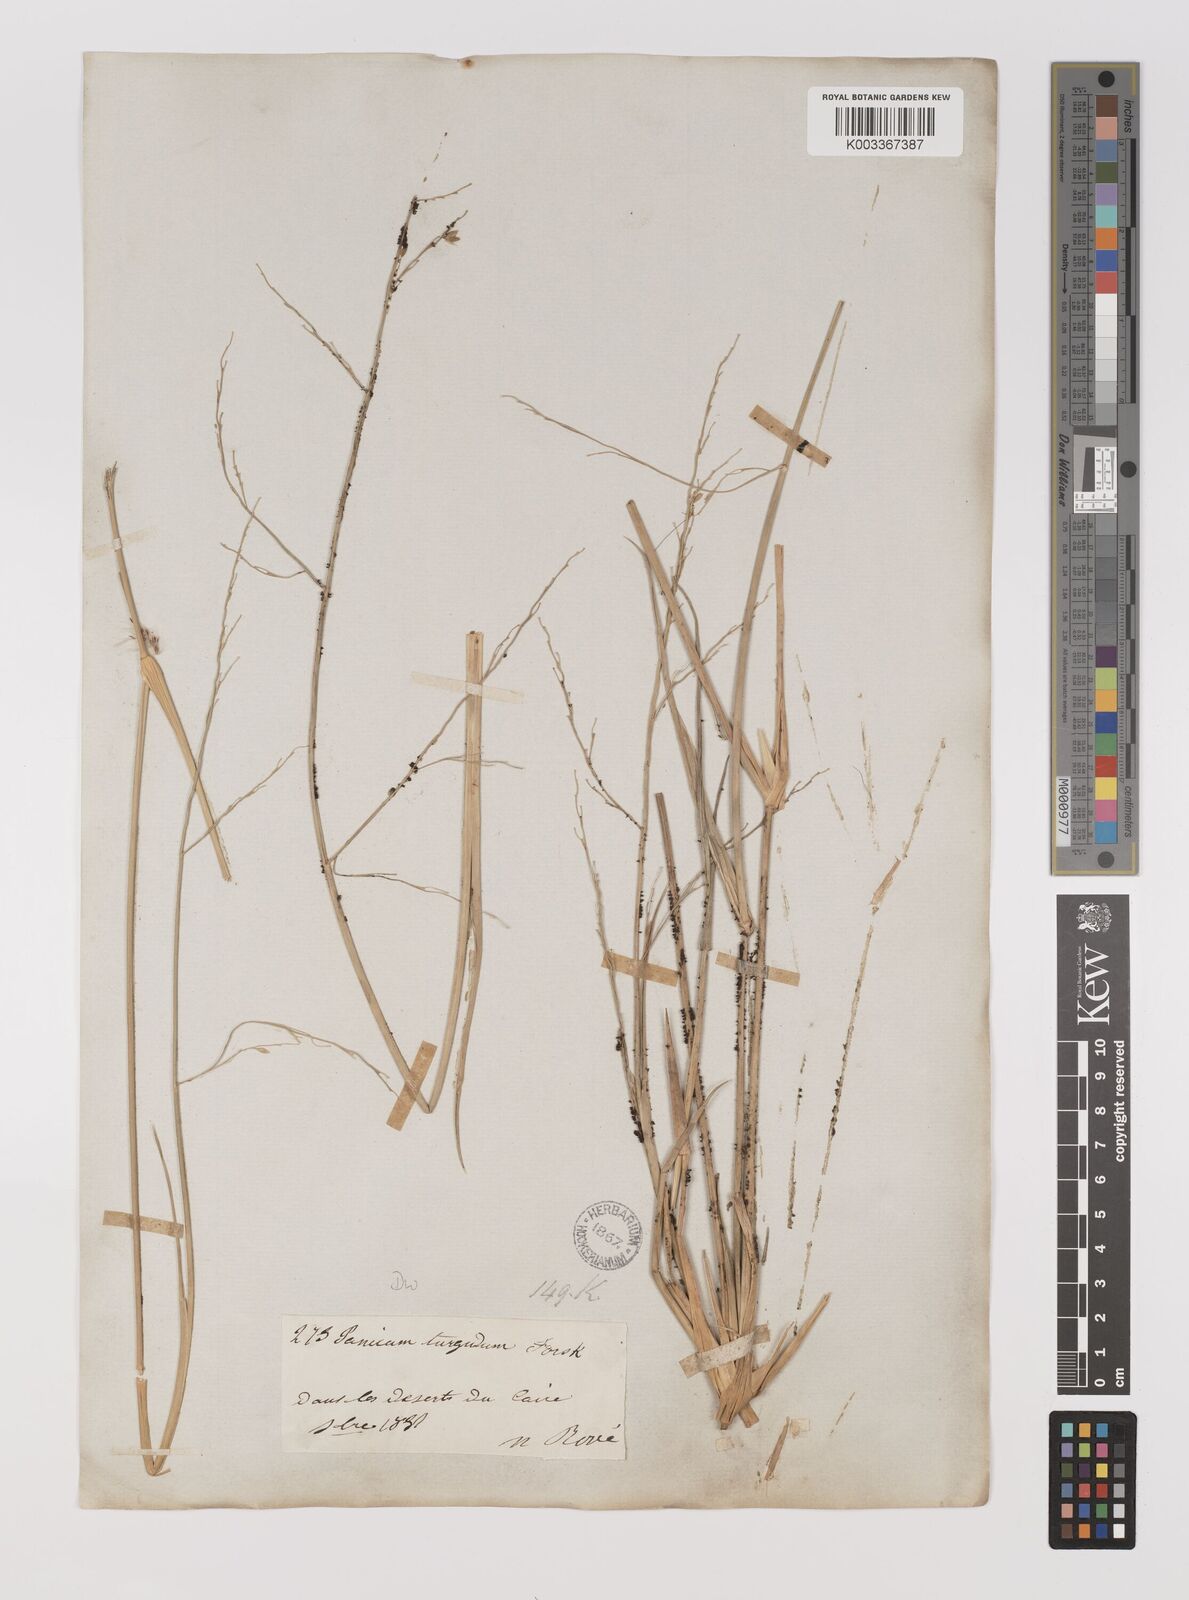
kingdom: Plantae
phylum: Tracheophyta
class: Liliopsida
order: Poales
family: Poaceae
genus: Panicum
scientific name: Panicum turgidum
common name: Desert grass
